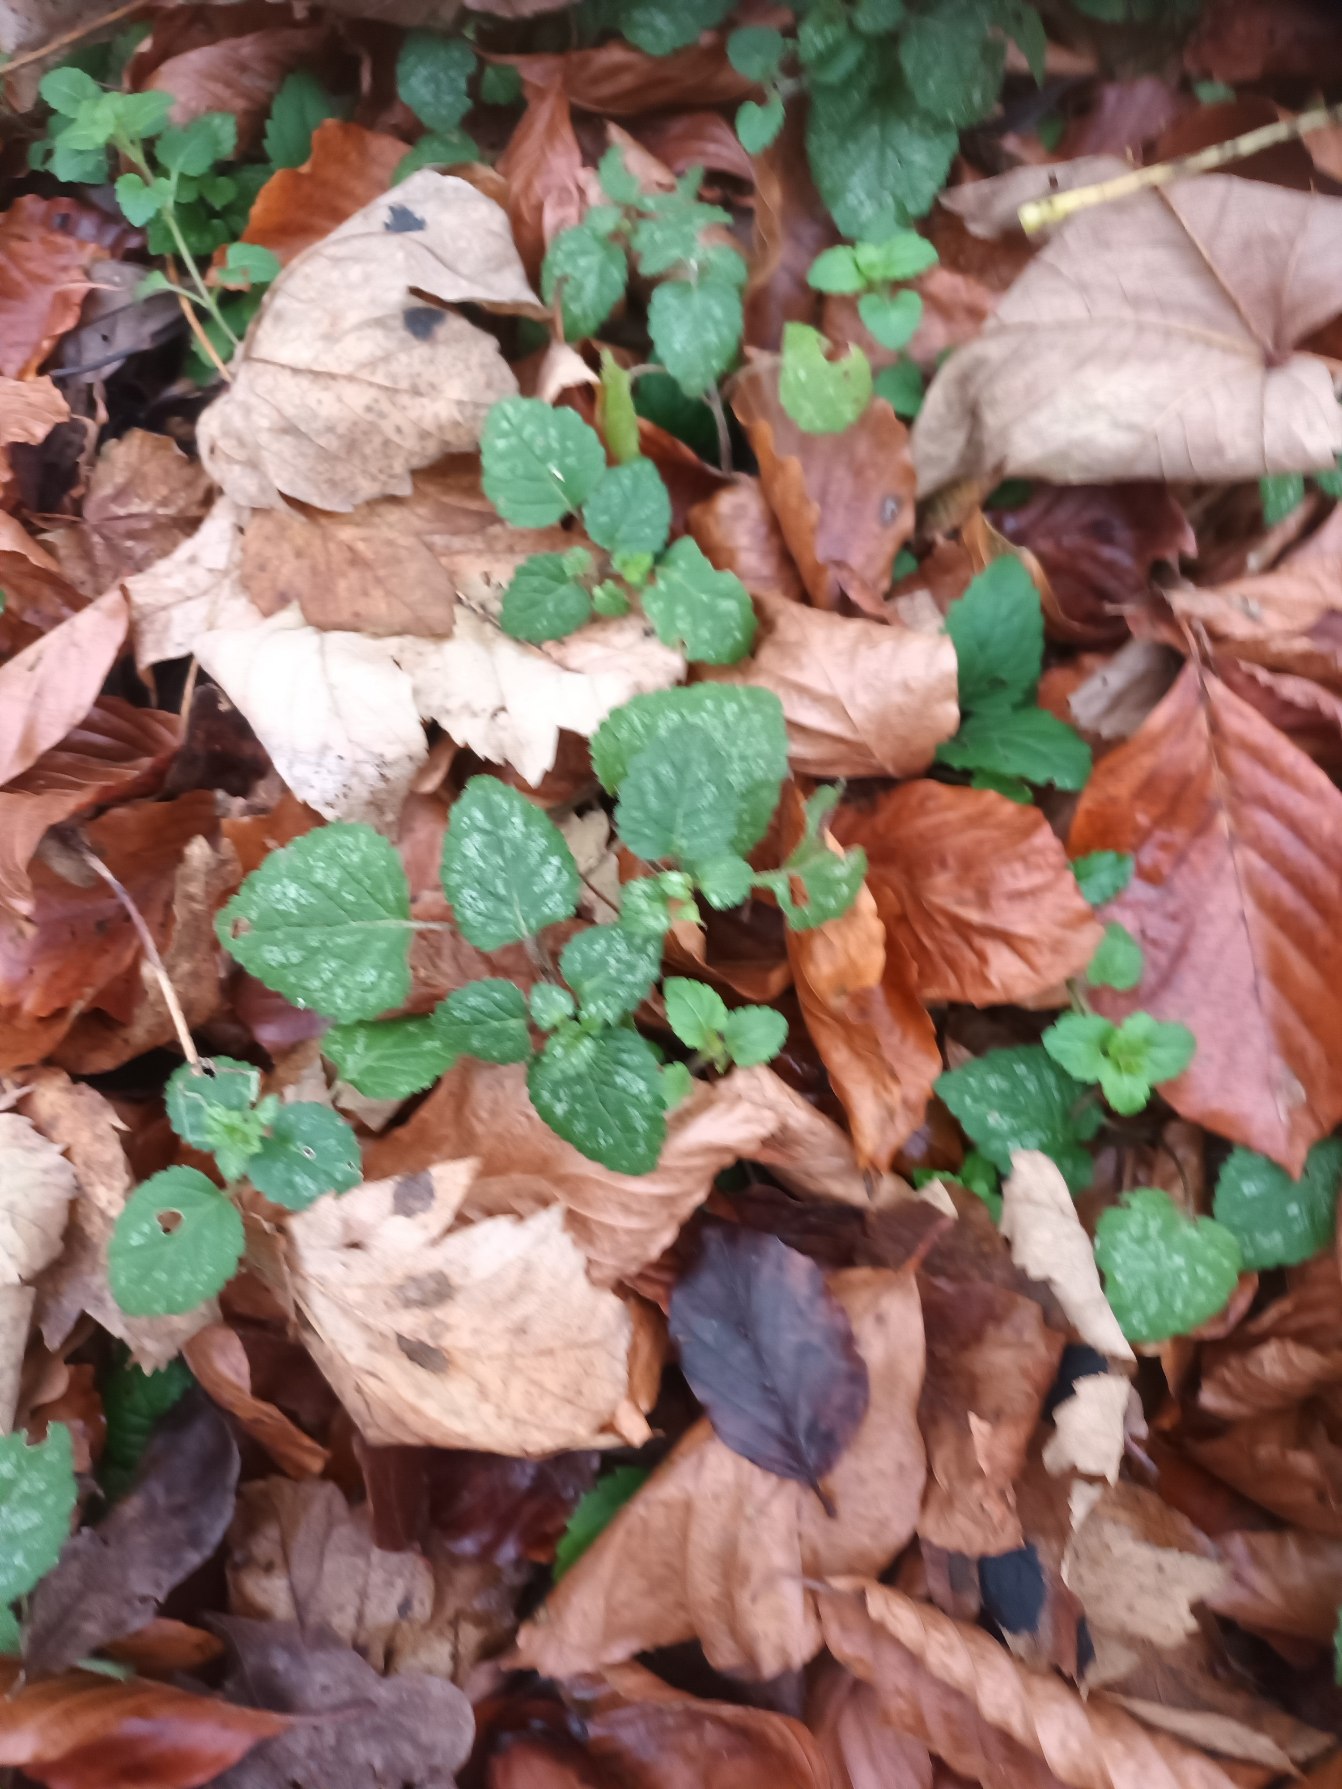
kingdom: Plantae
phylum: Tracheophyta
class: Magnoliopsida
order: Lamiales
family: Lamiaceae
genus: Lamium
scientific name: Lamium galeobdolon
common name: Almindelig guldnælde
